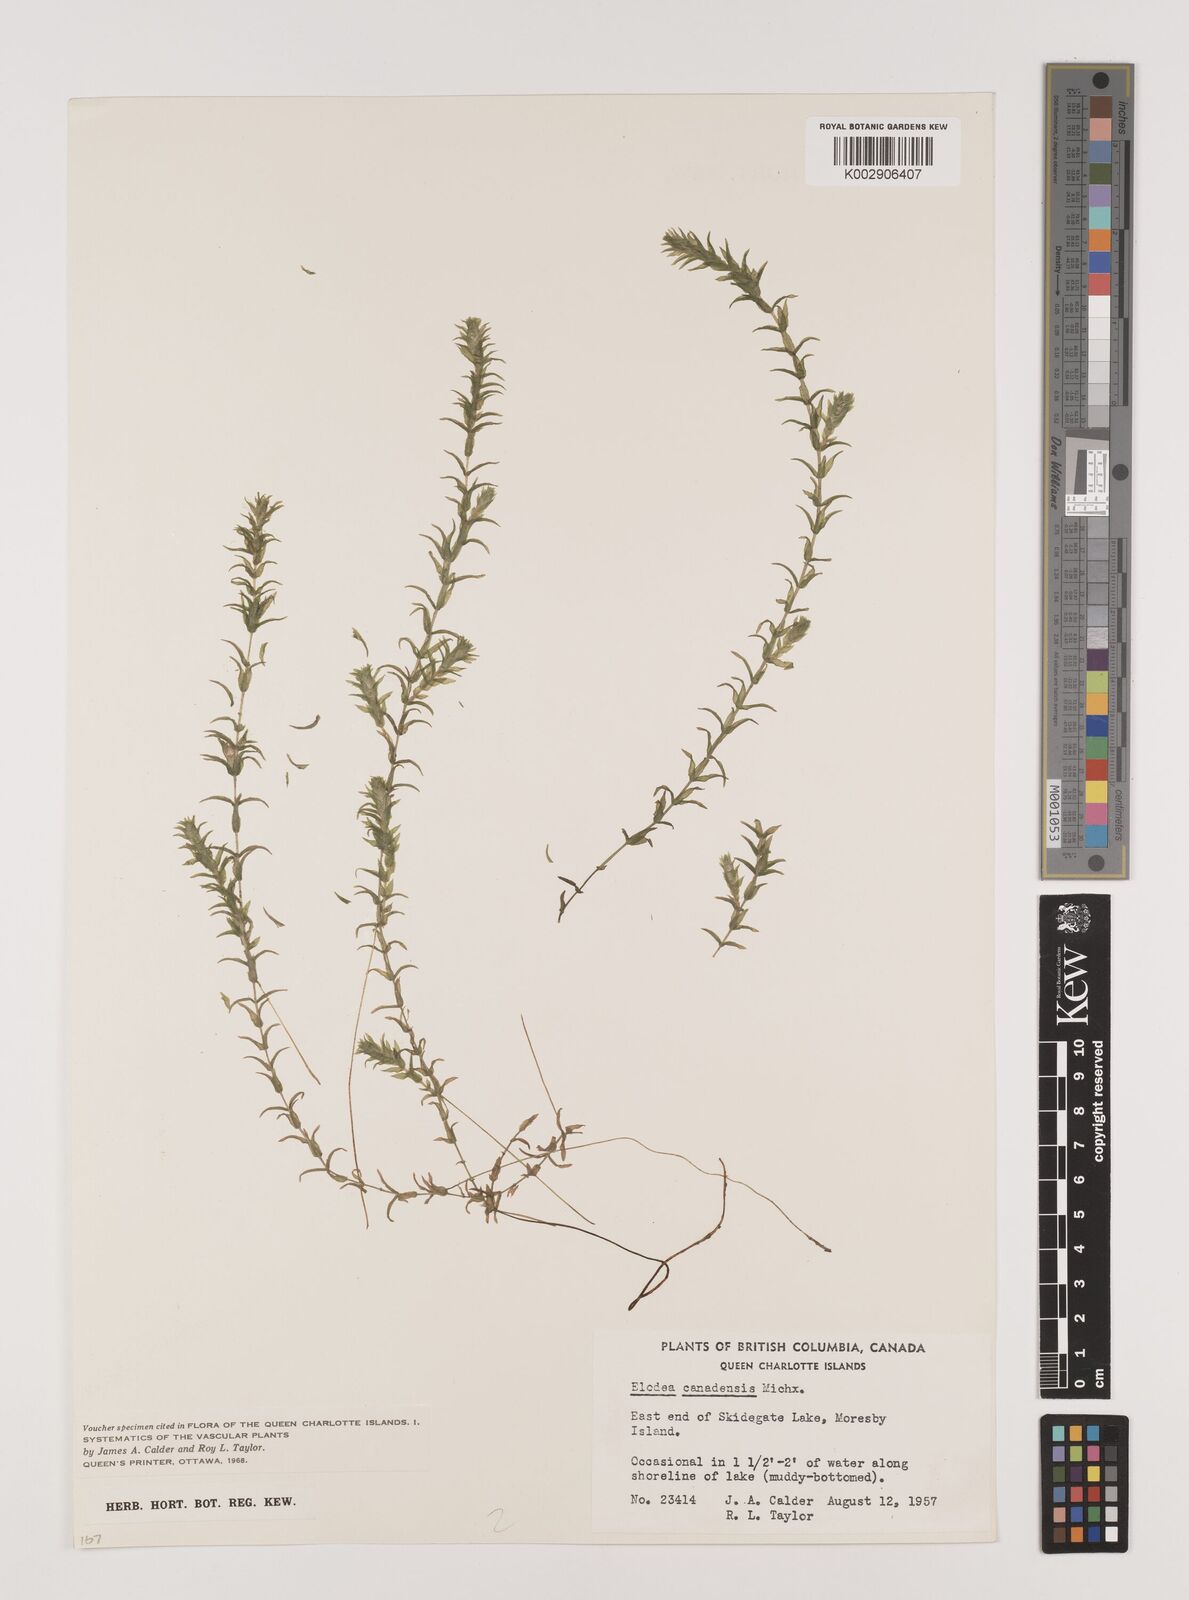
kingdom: Plantae
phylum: Tracheophyta
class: Liliopsida
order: Alismatales
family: Hydrocharitaceae
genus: Elodea
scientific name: Elodea canadensis
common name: Canadian waterweed
